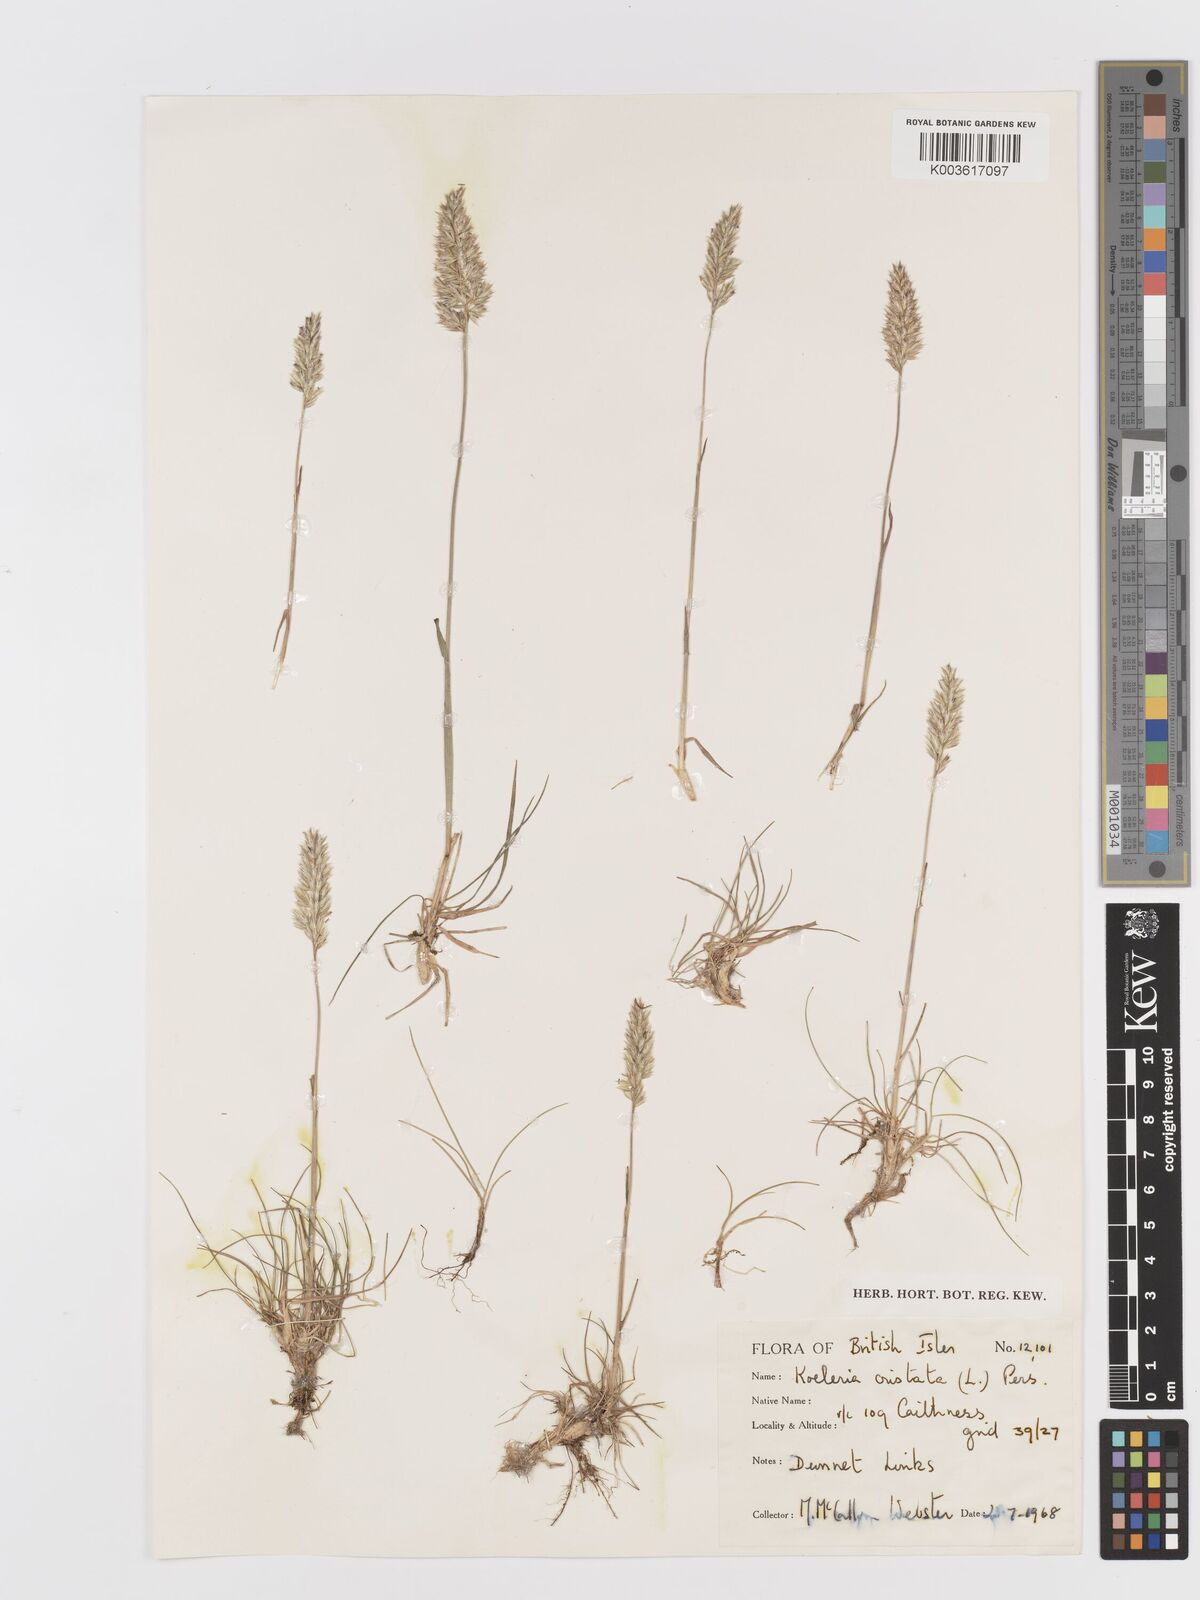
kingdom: Plantae
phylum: Tracheophyta
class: Liliopsida
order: Poales
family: Poaceae
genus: Koeleria
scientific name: Koeleria macrantha
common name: Crested hair-grass
